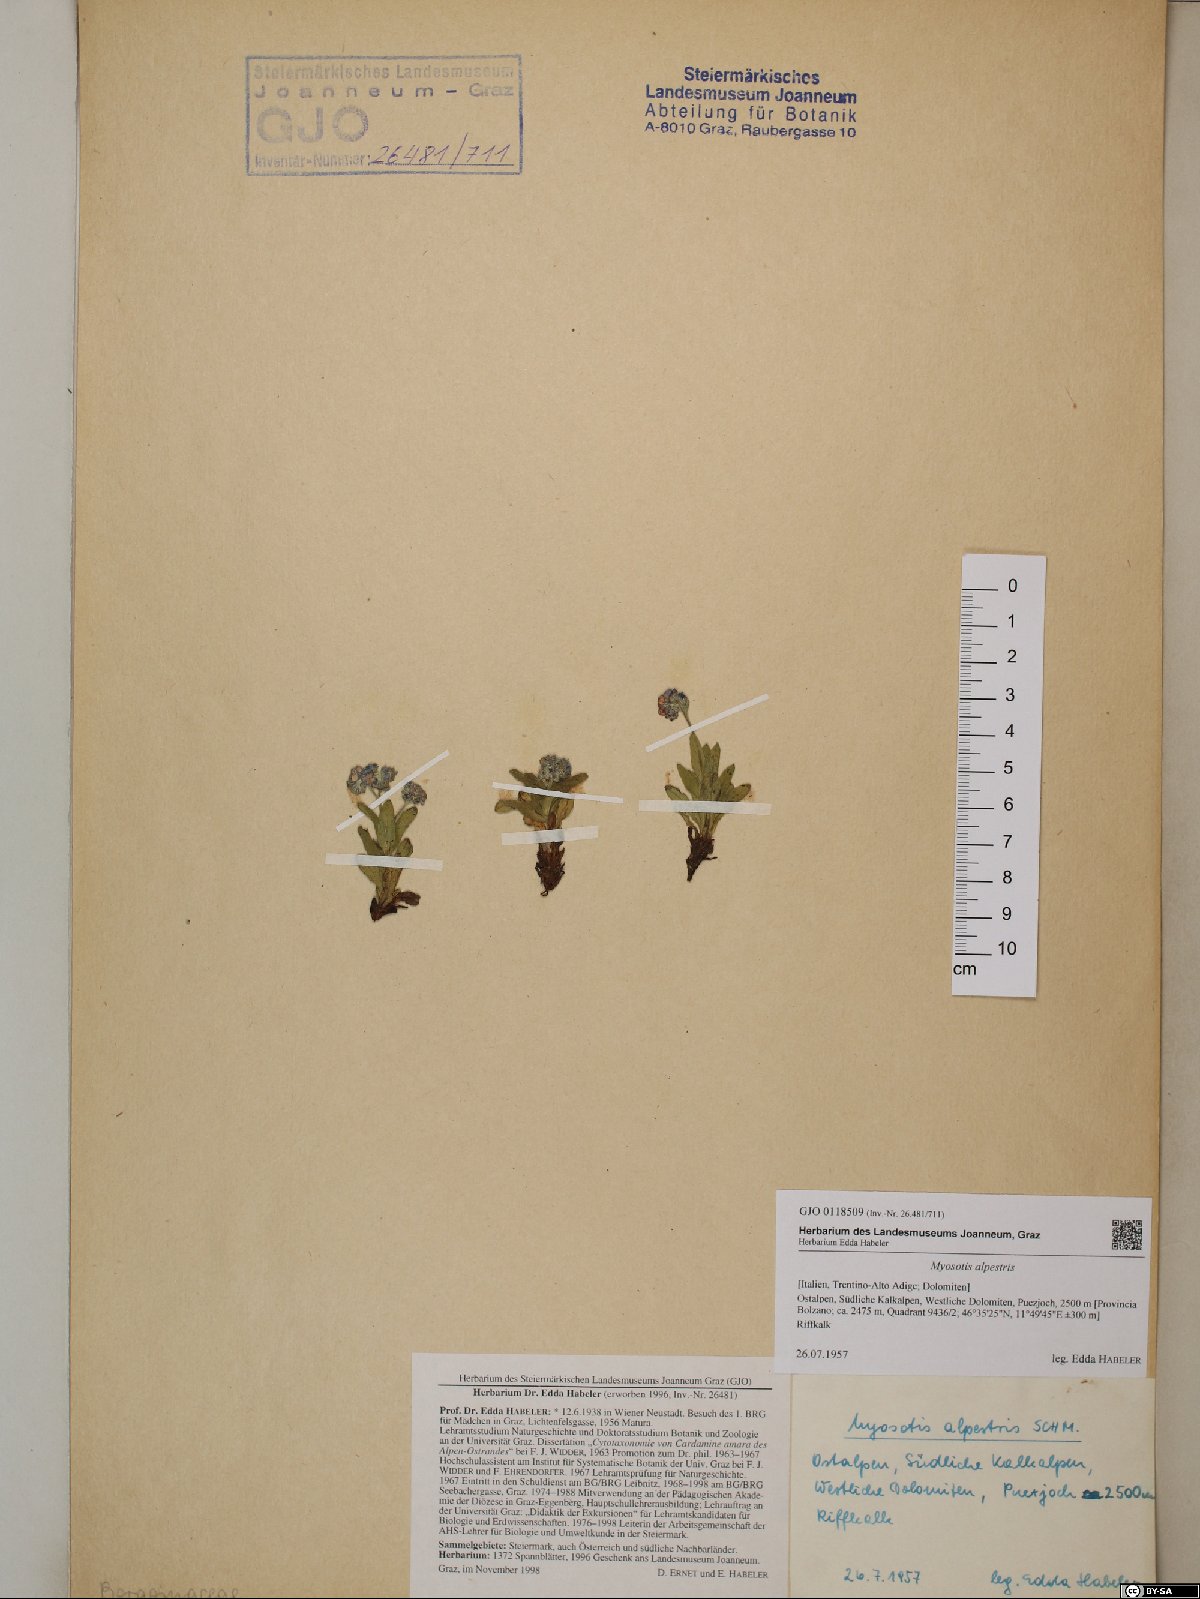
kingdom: Plantae
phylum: Tracheophyta
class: Magnoliopsida
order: Boraginales
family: Boraginaceae
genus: Myosotis
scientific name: Myosotis alpestris
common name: Alpine forget-me-not
